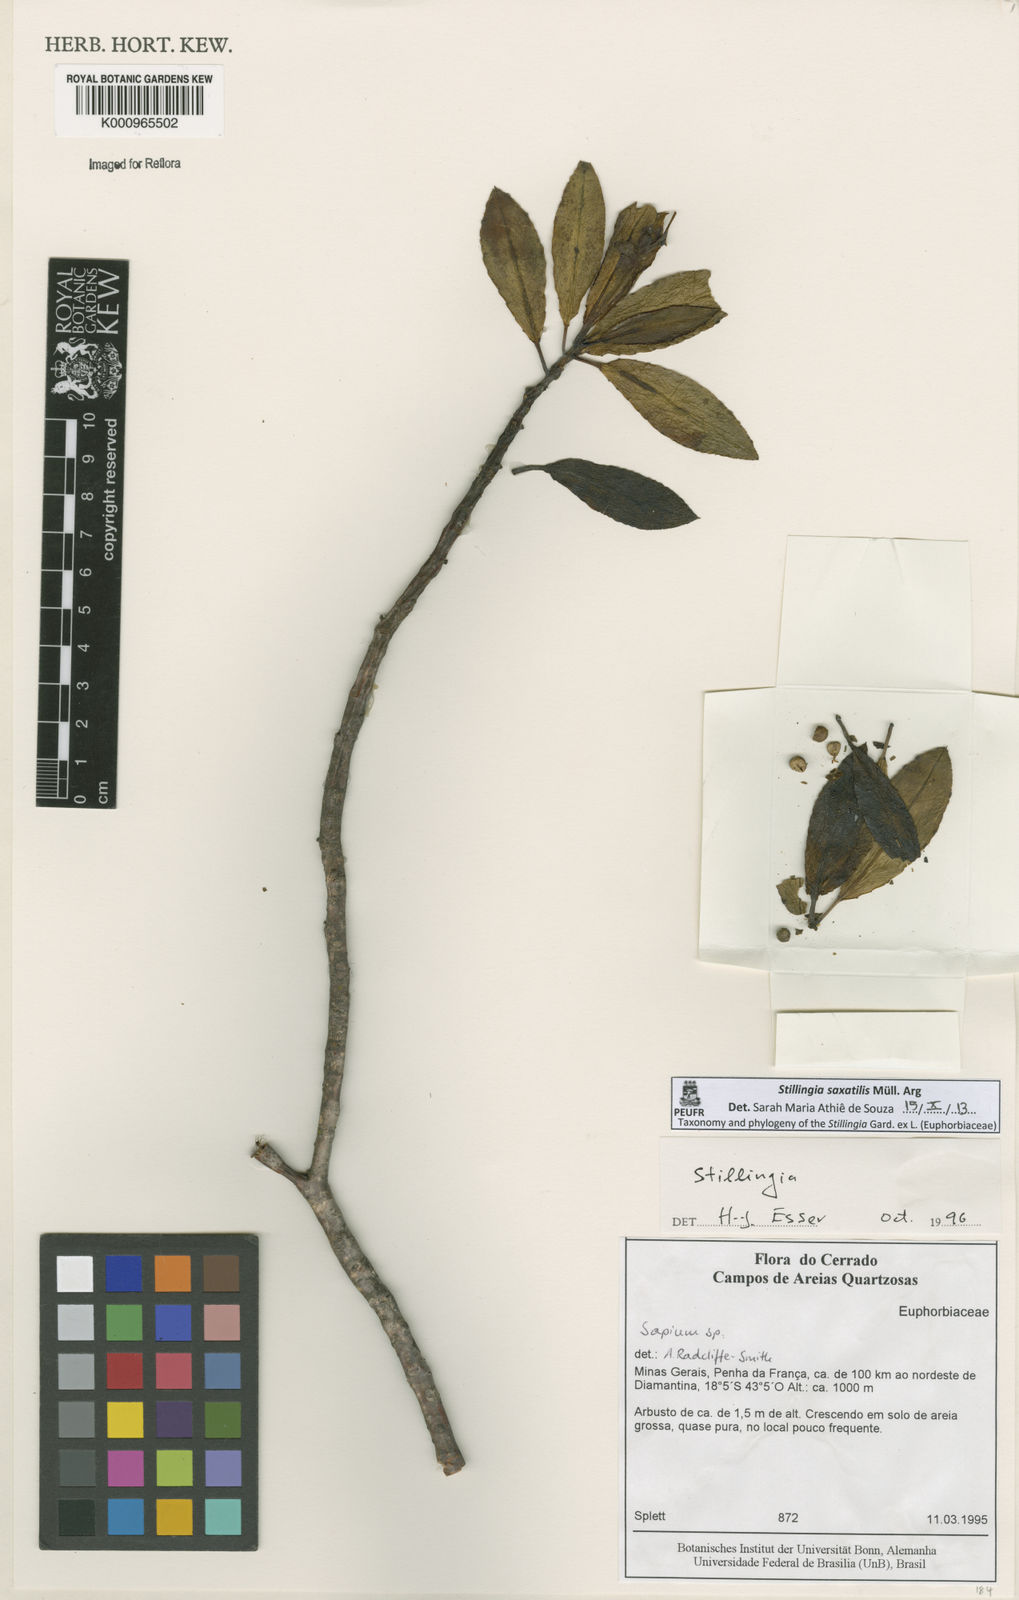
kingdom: Plantae
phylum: Tracheophyta
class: Magnoliopsida
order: Malpighiales
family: Euphorbiaceae
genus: Stillingia
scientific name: Stillingia
